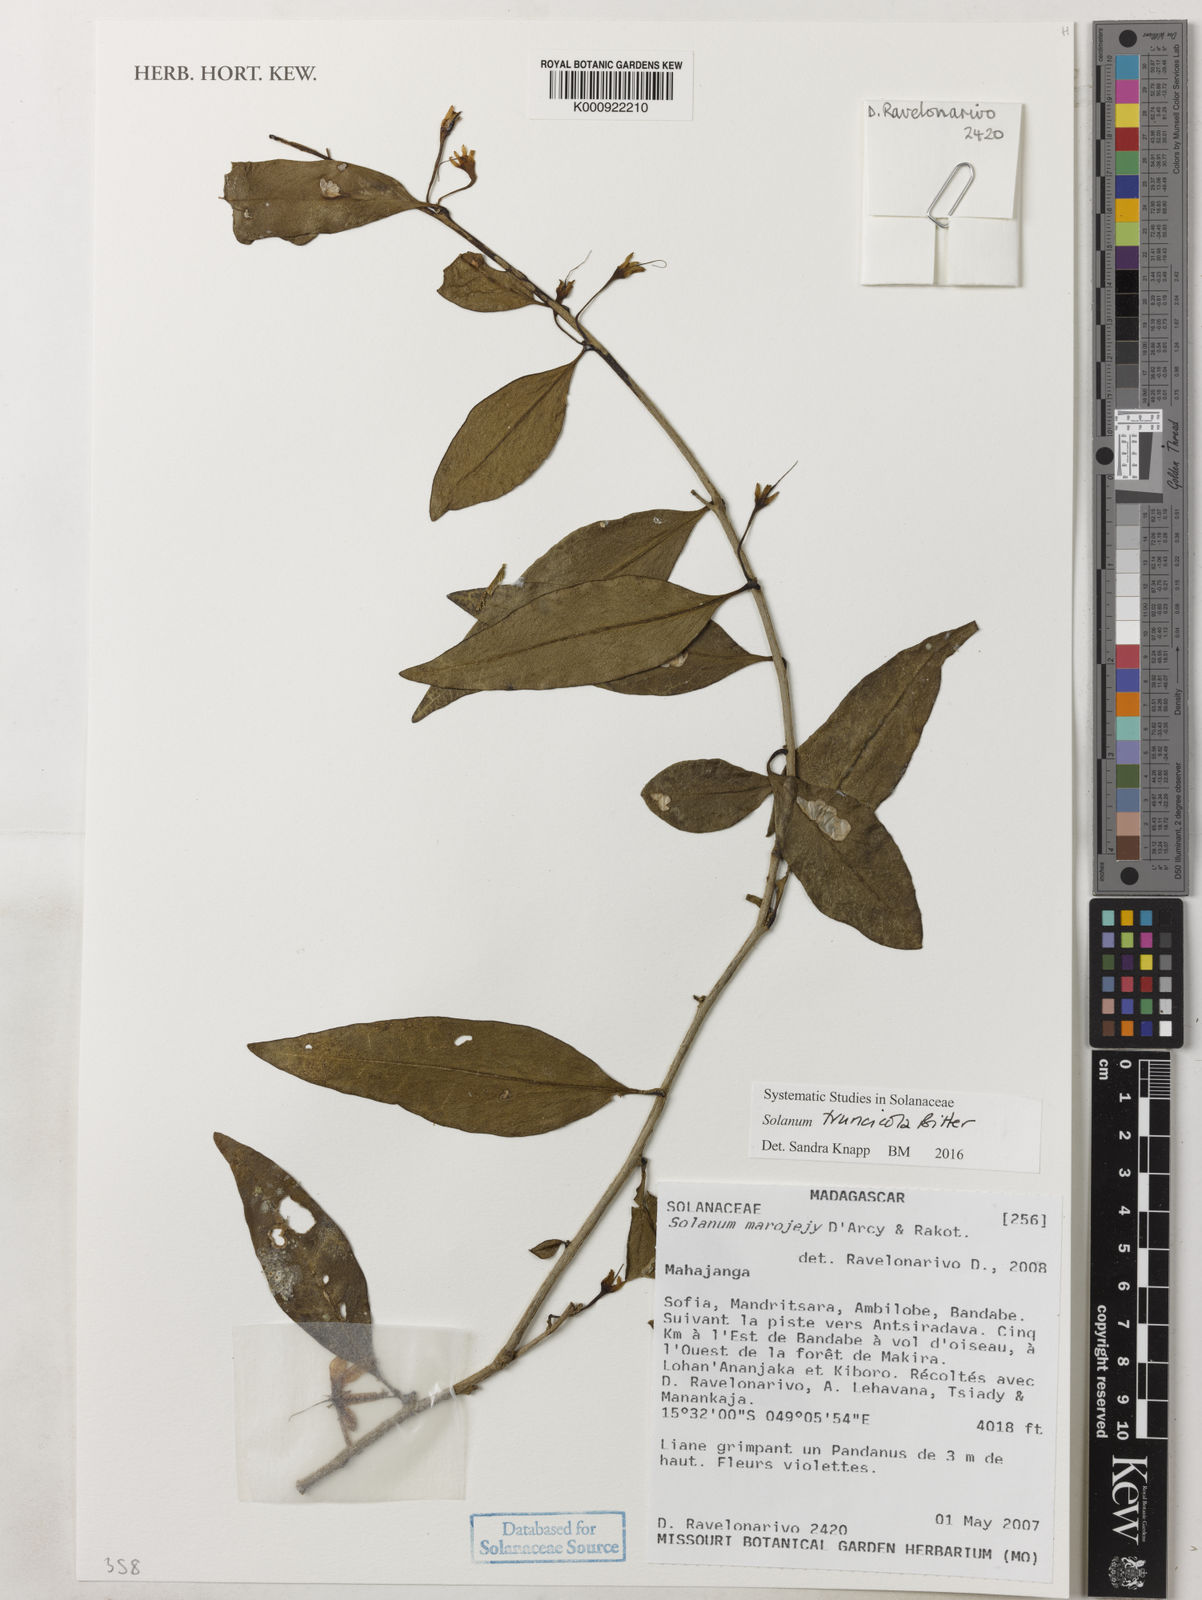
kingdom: Plantae
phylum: Tracheophyta
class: Magnoliopsida
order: Solanales
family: Solanaceae
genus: Solanum
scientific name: Solanum humblotii
